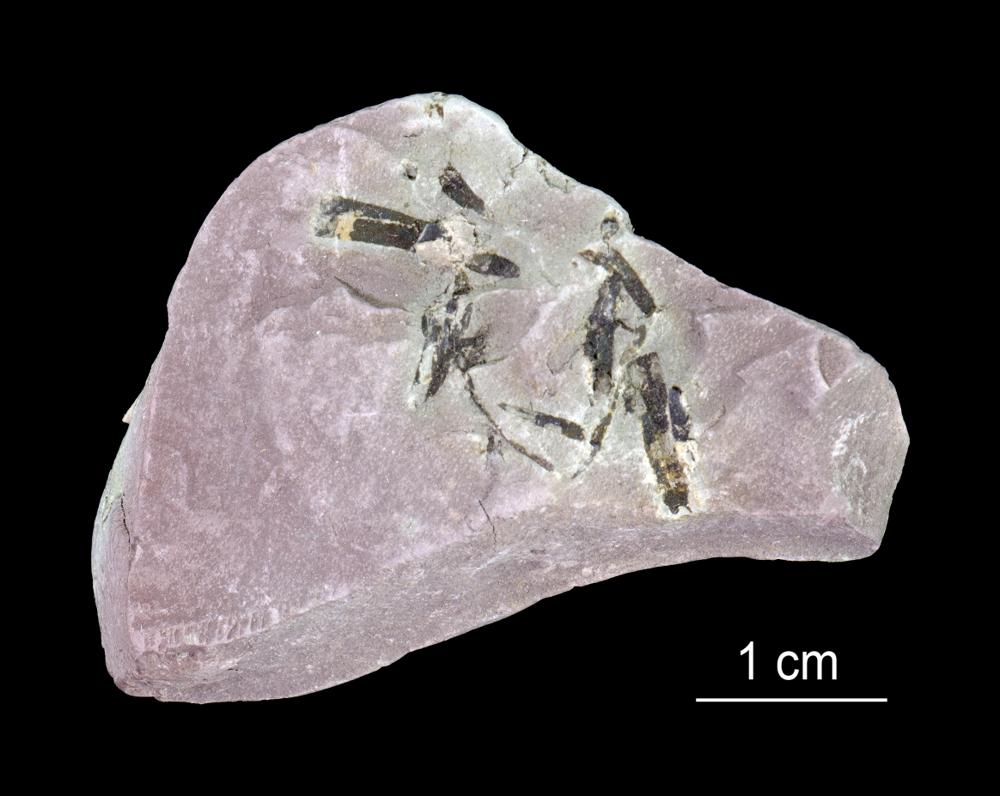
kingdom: Animalia
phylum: Annelida
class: Polychaeta
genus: Volborthella
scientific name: Volborthella tenuis
